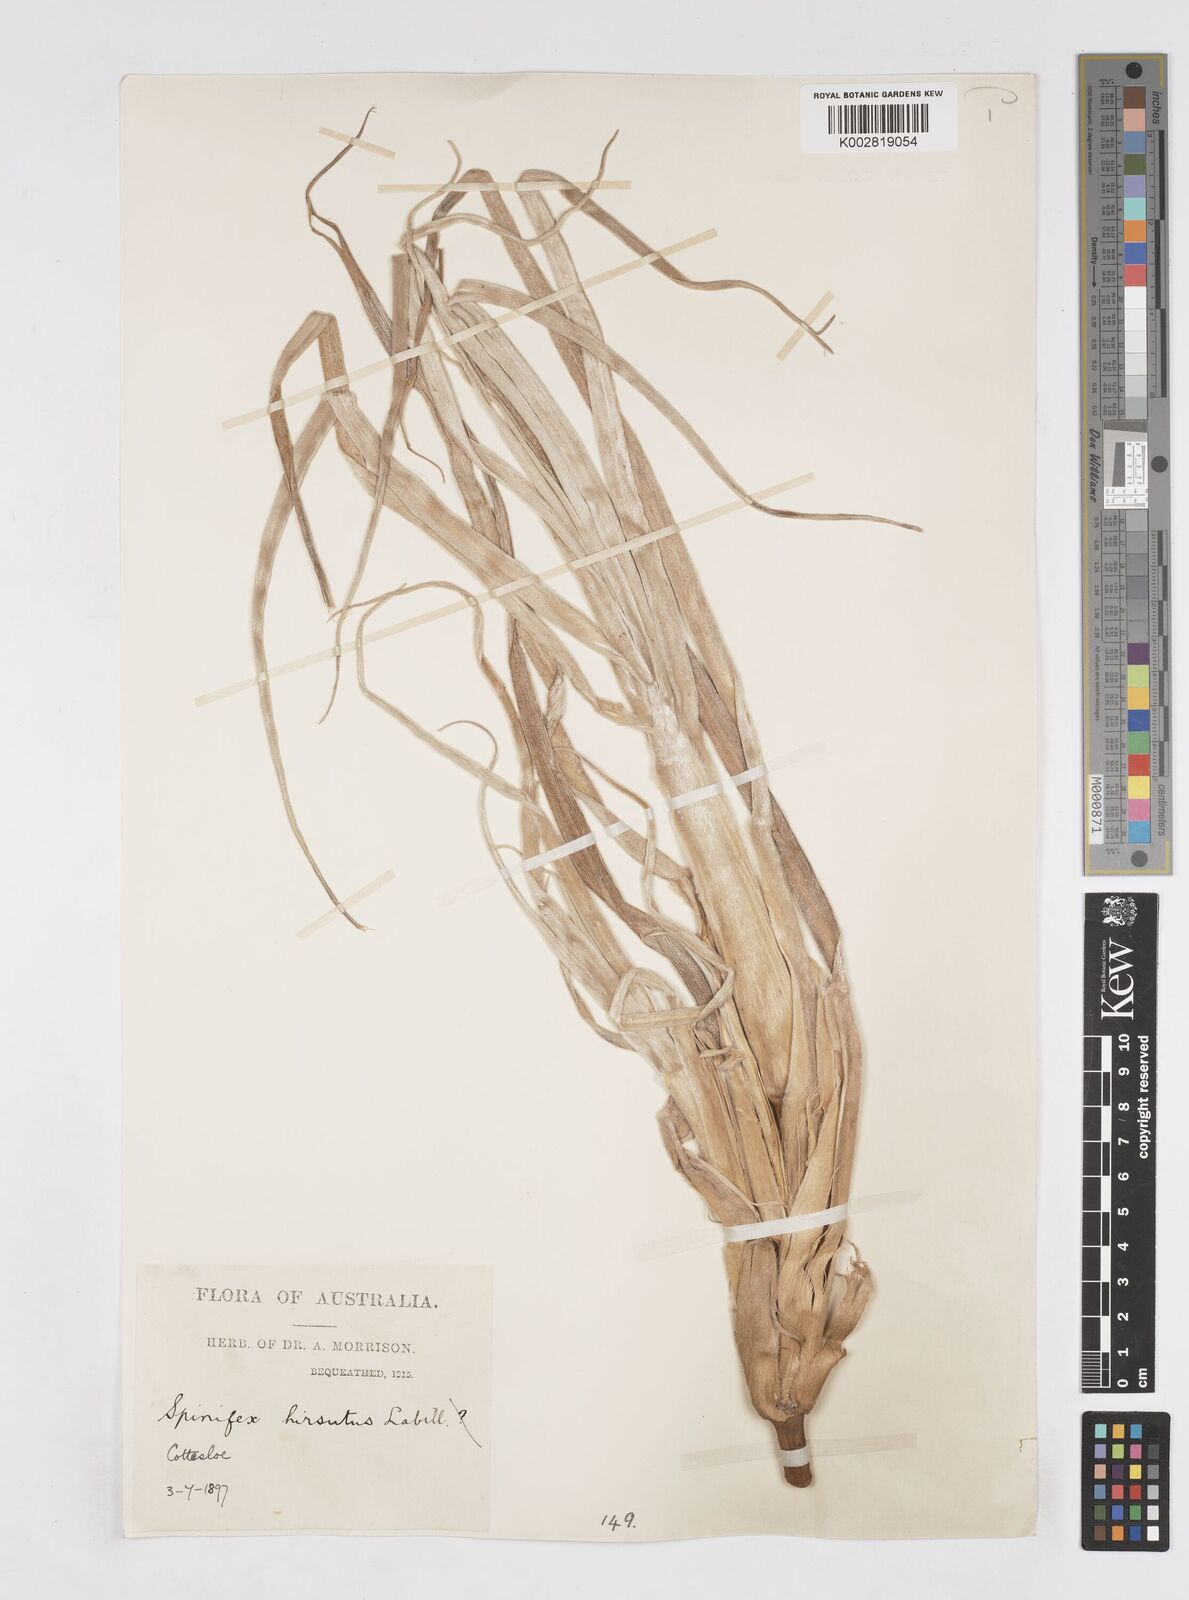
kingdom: Plantae
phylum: Tracheophyta
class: Liliopsida
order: Poales
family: Poaceae
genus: Spinifex
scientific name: Spinifex hirsutus
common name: Hairy spinifex
